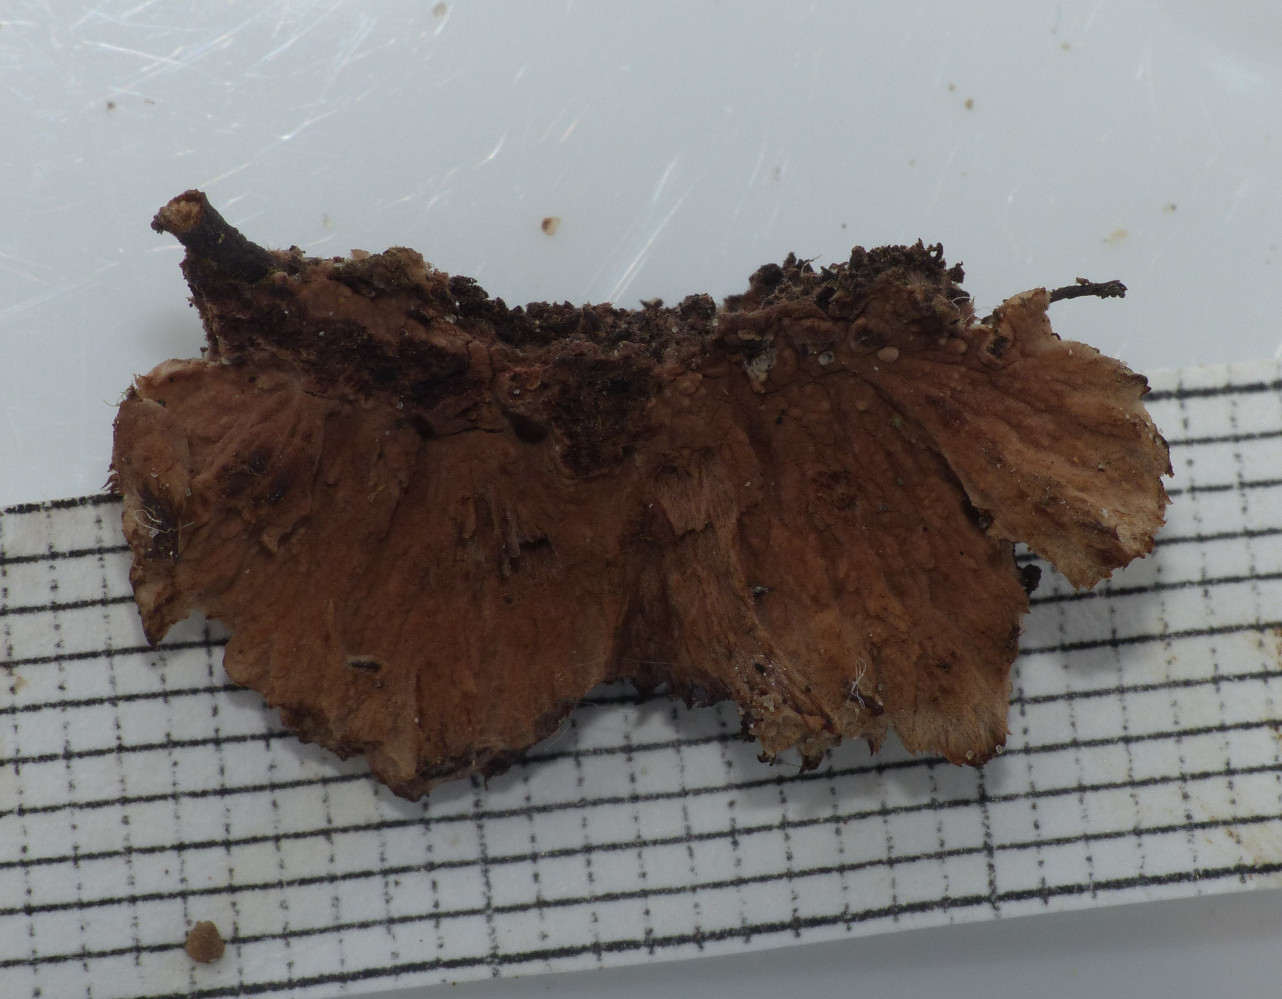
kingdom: Fungi
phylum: Basidiomycota
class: Agaricomycetes
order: Thelephorales
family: Thelephoraceae
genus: Thelephora
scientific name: Thelephora terrestris
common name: fliget frynsesvamp
